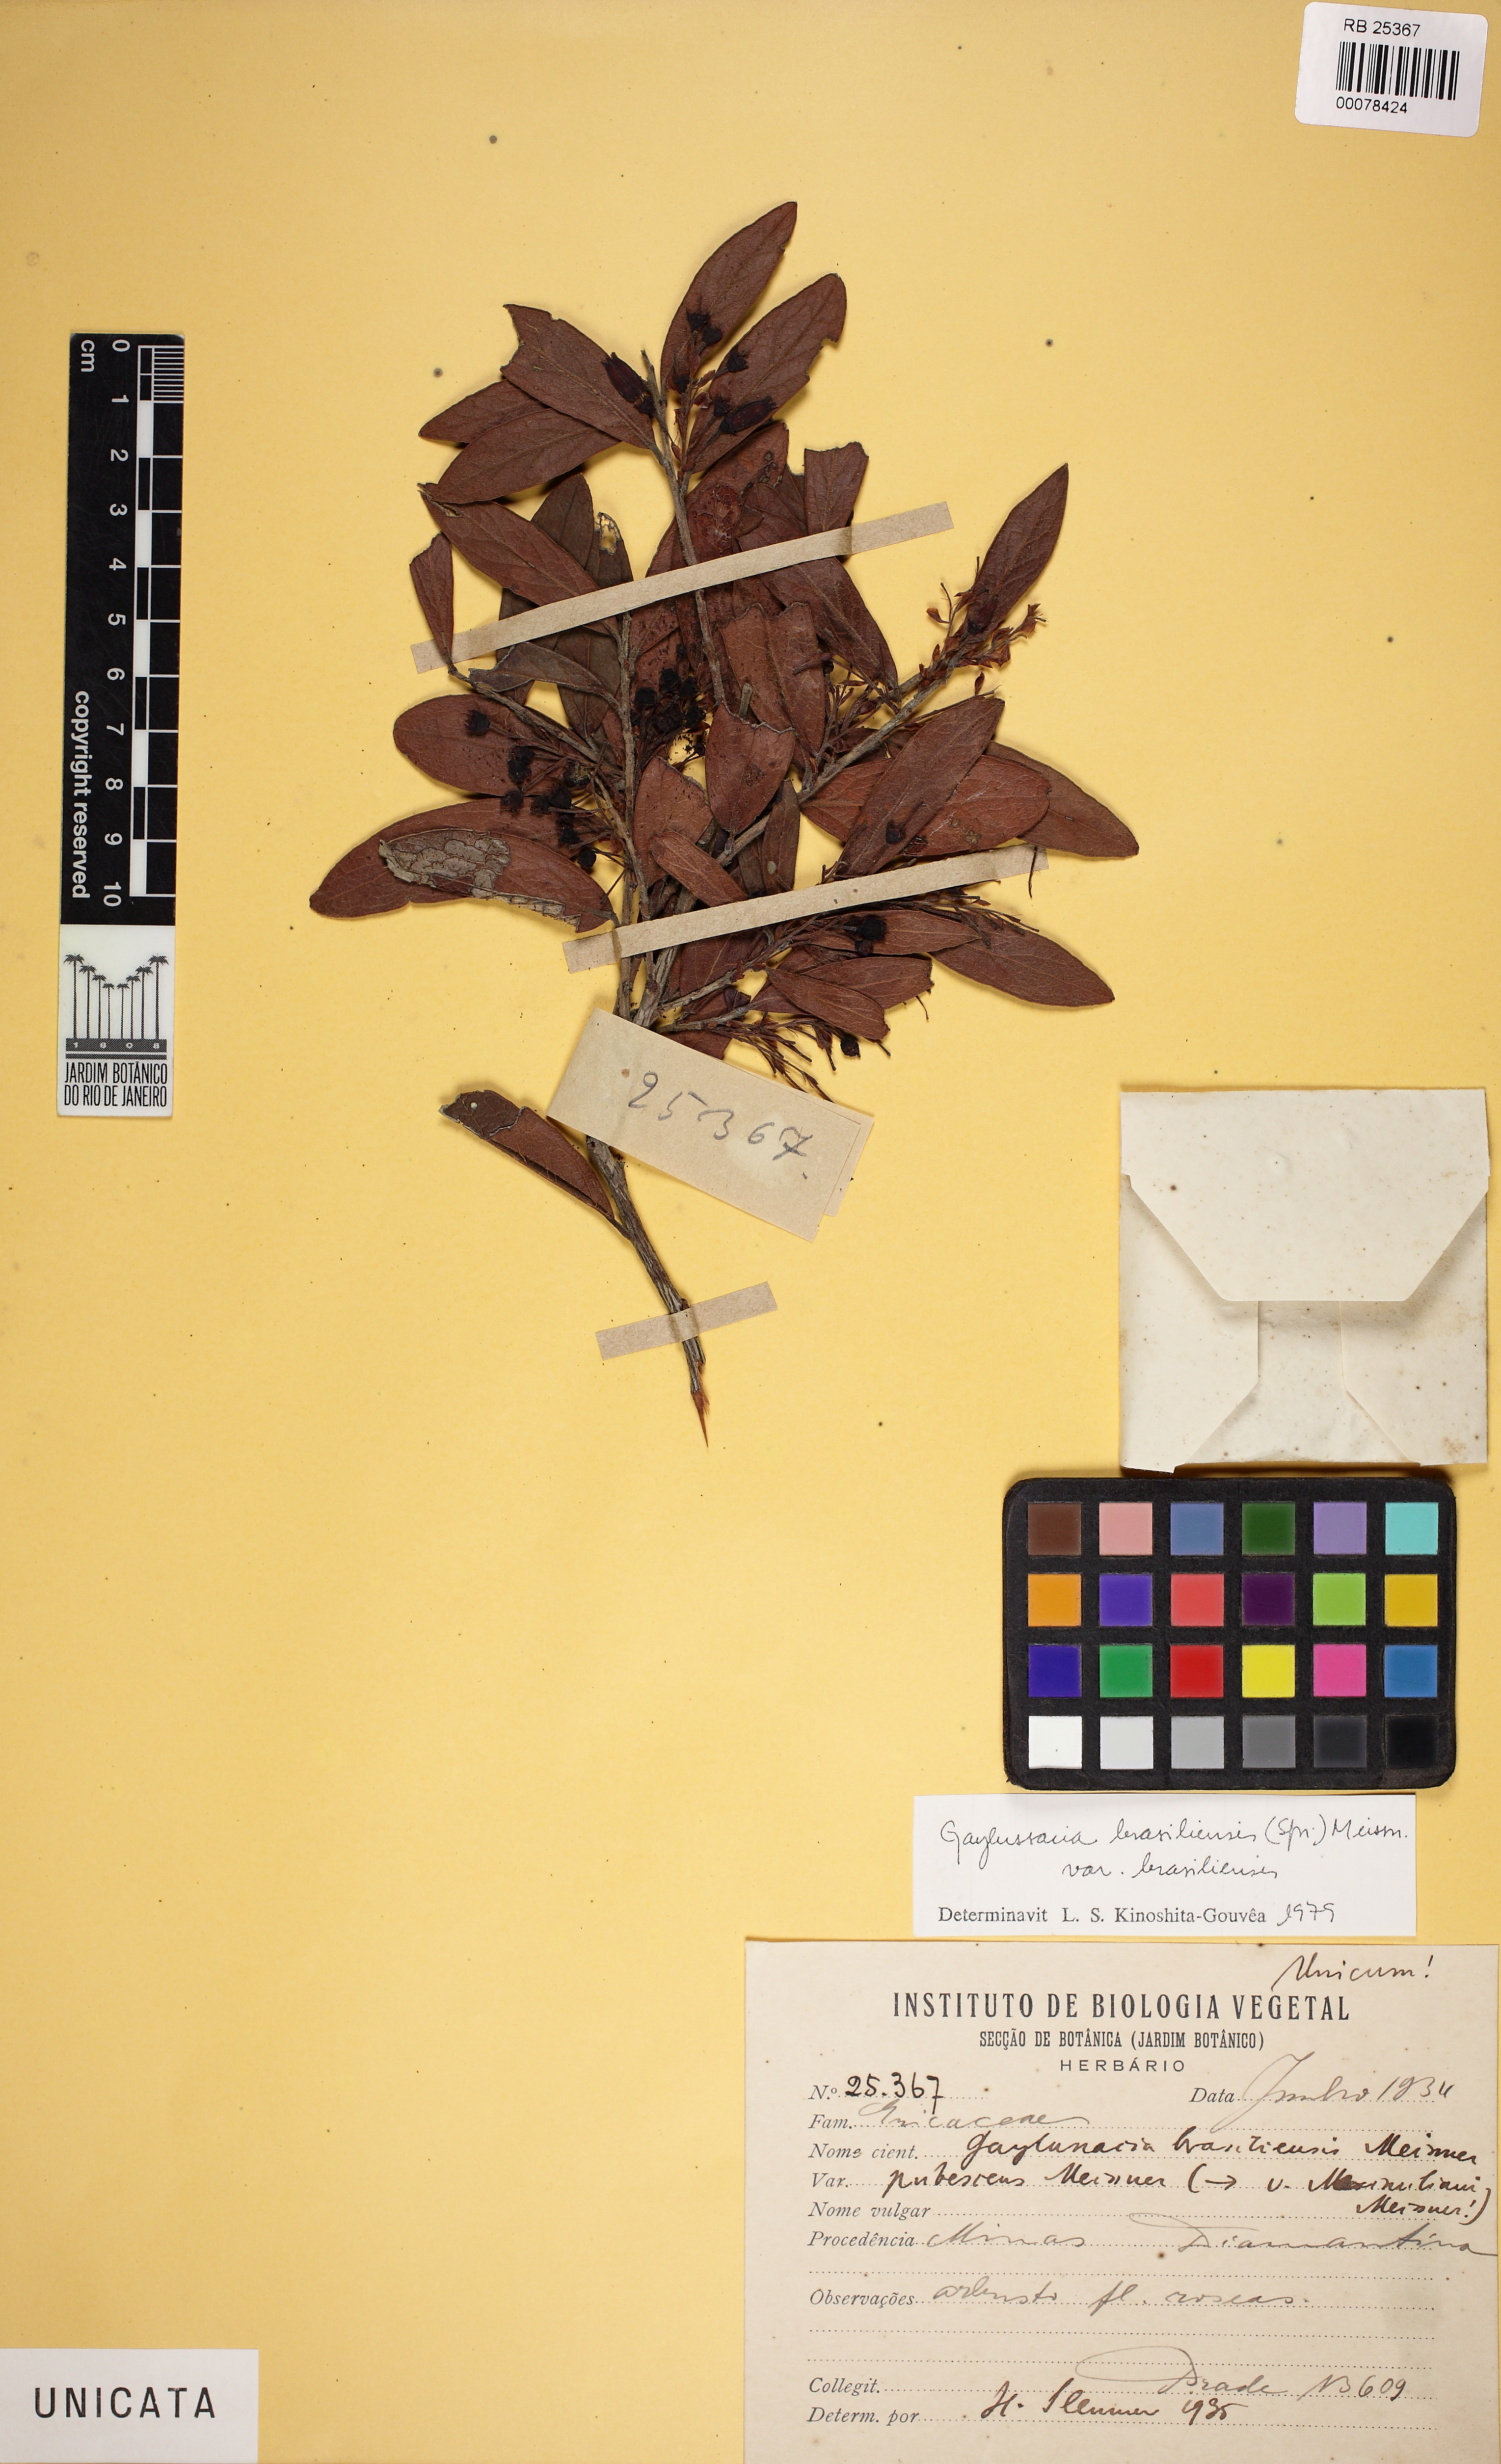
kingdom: Plantae
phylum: Tracheophyta
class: Magnoliopsida
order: Ericales
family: Ericaceae
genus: Gaylussacia
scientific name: Gaylussacia brasiliensis
